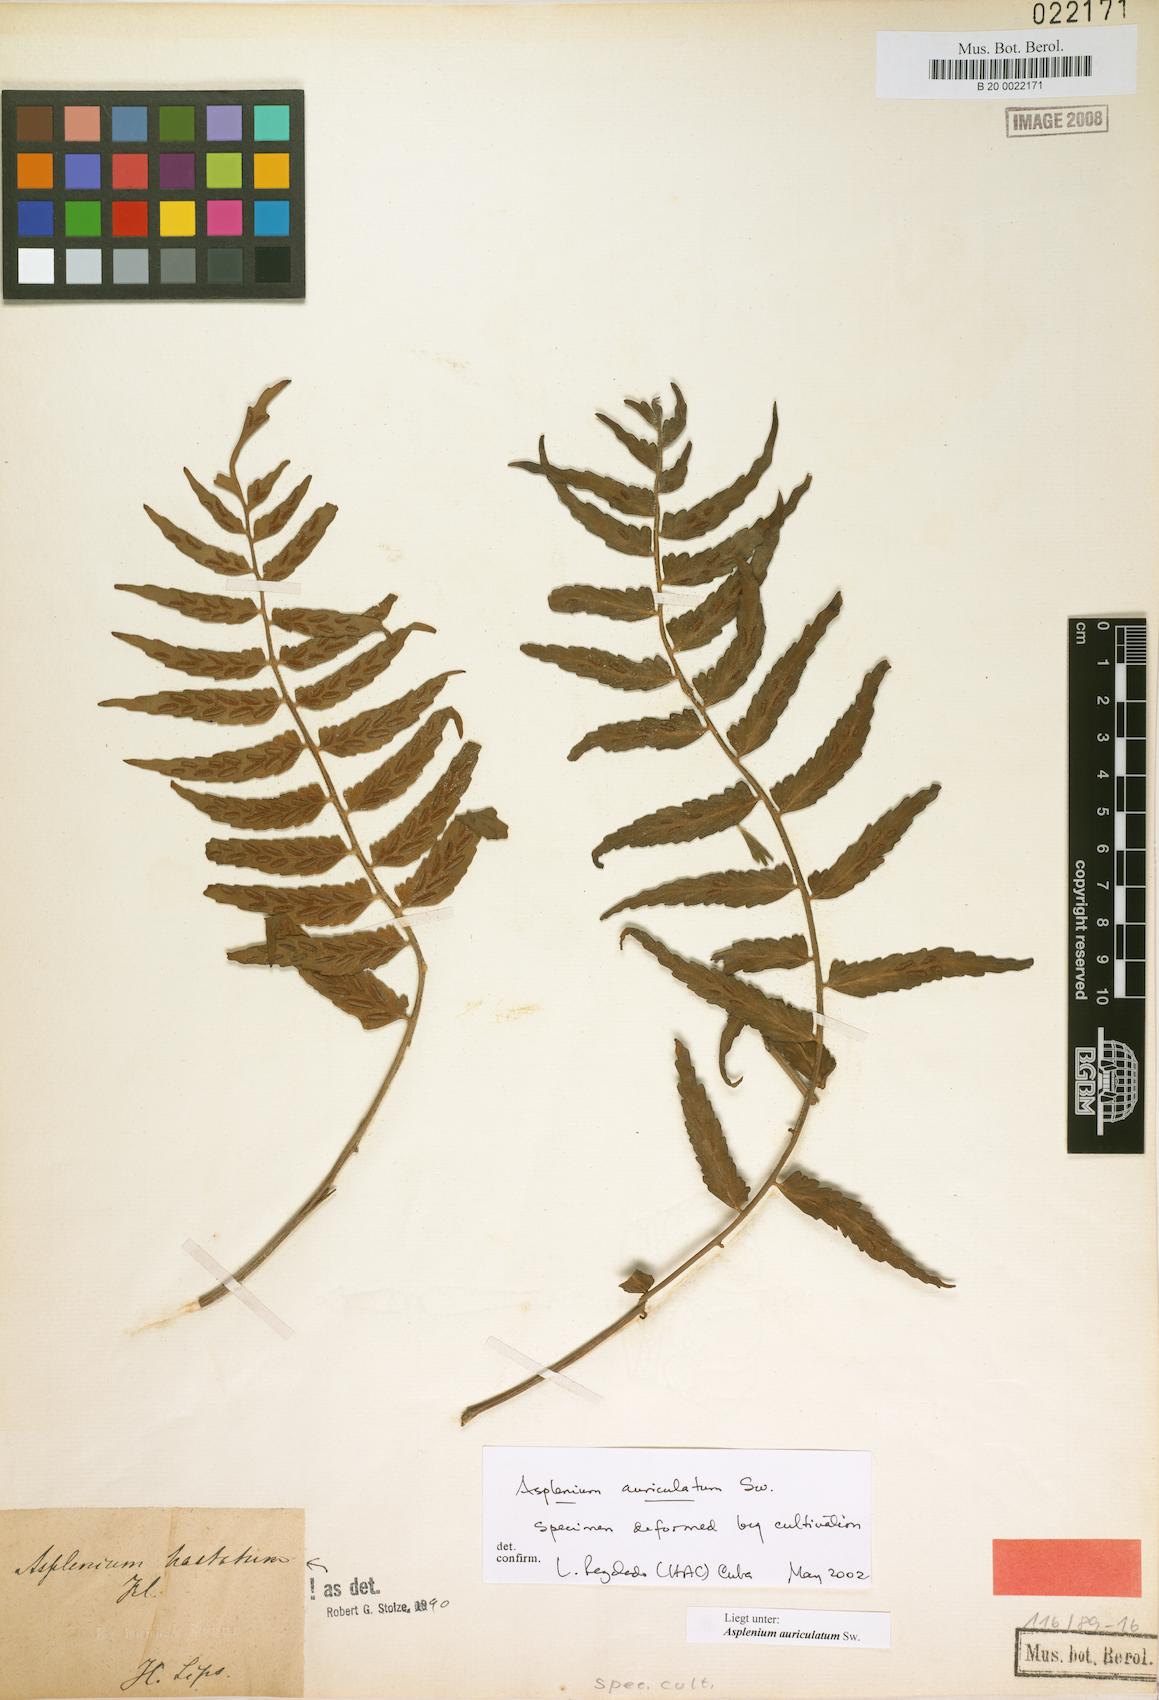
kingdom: Plantae
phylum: Tracheophyta
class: Polypodiopsida
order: Polypodiales
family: Aspleniaceae
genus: Asplenium
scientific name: Asplenium hastatum
